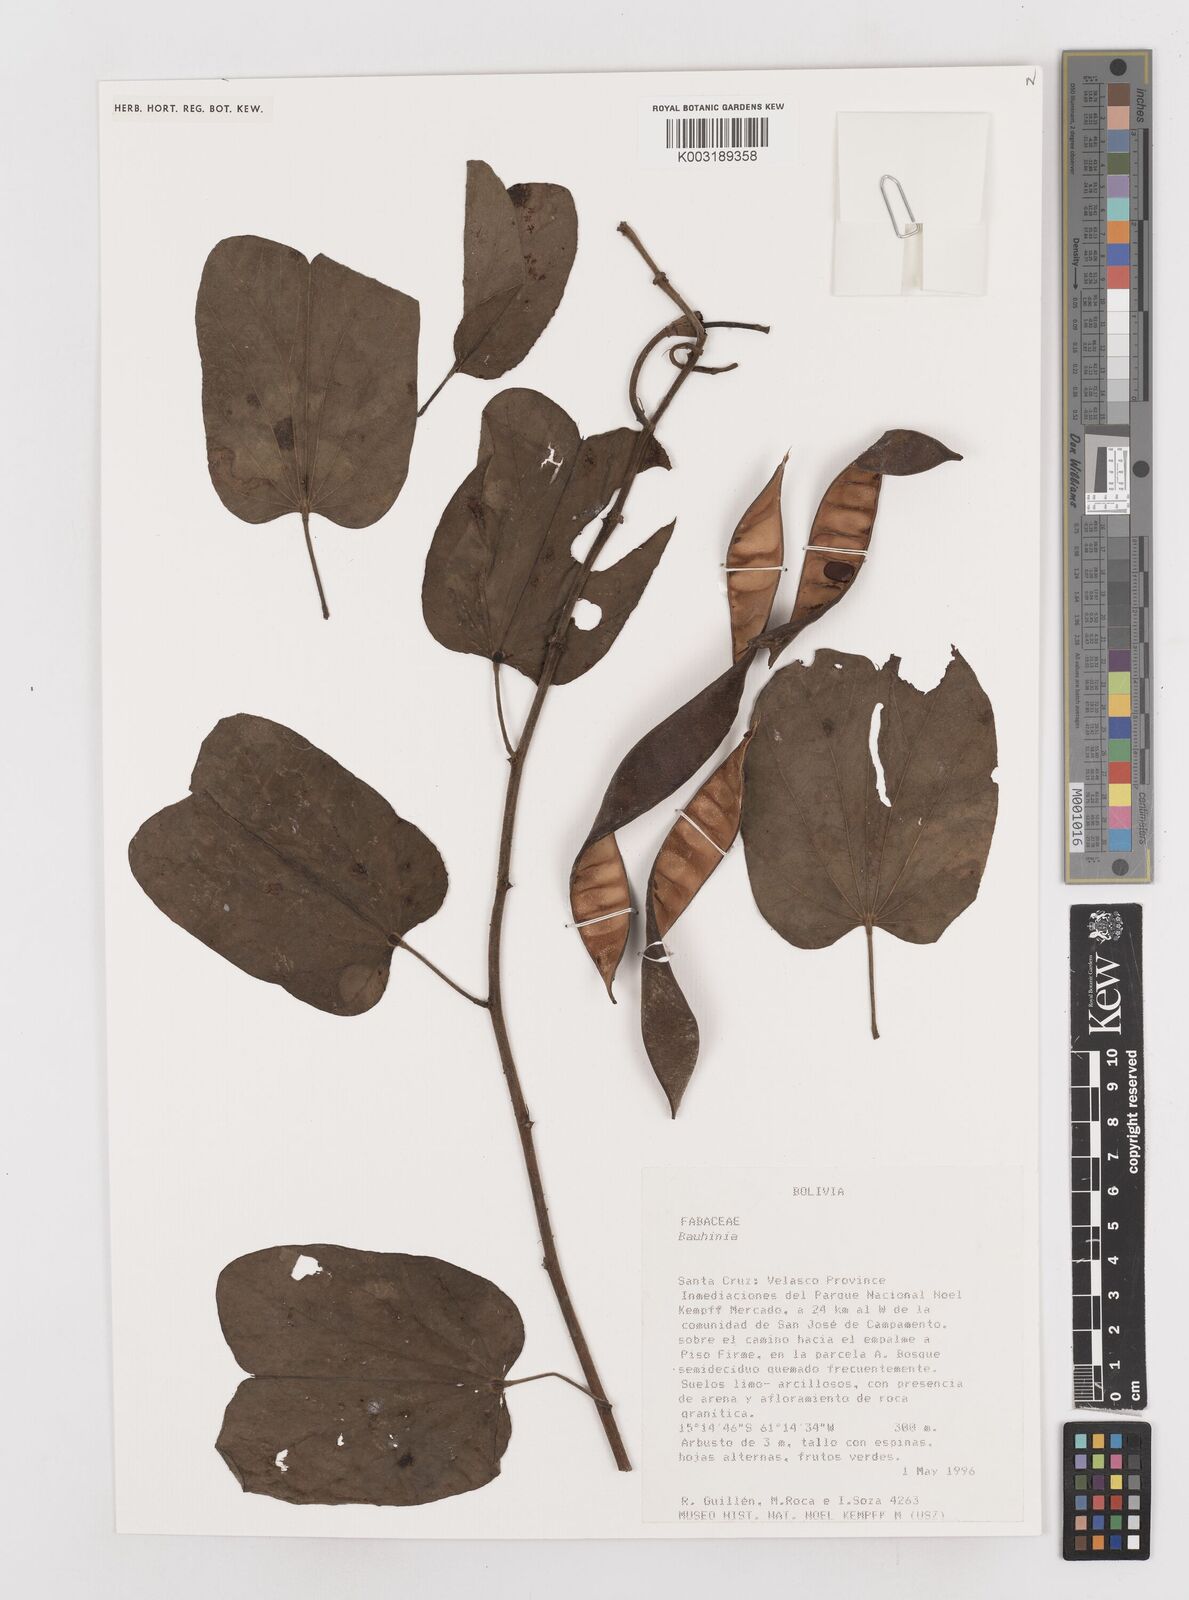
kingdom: Plantae
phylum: Tracheophyta
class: Magnoliopsida
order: Fabales
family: Fabaceae
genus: Bauhinia
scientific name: Bauhinia
